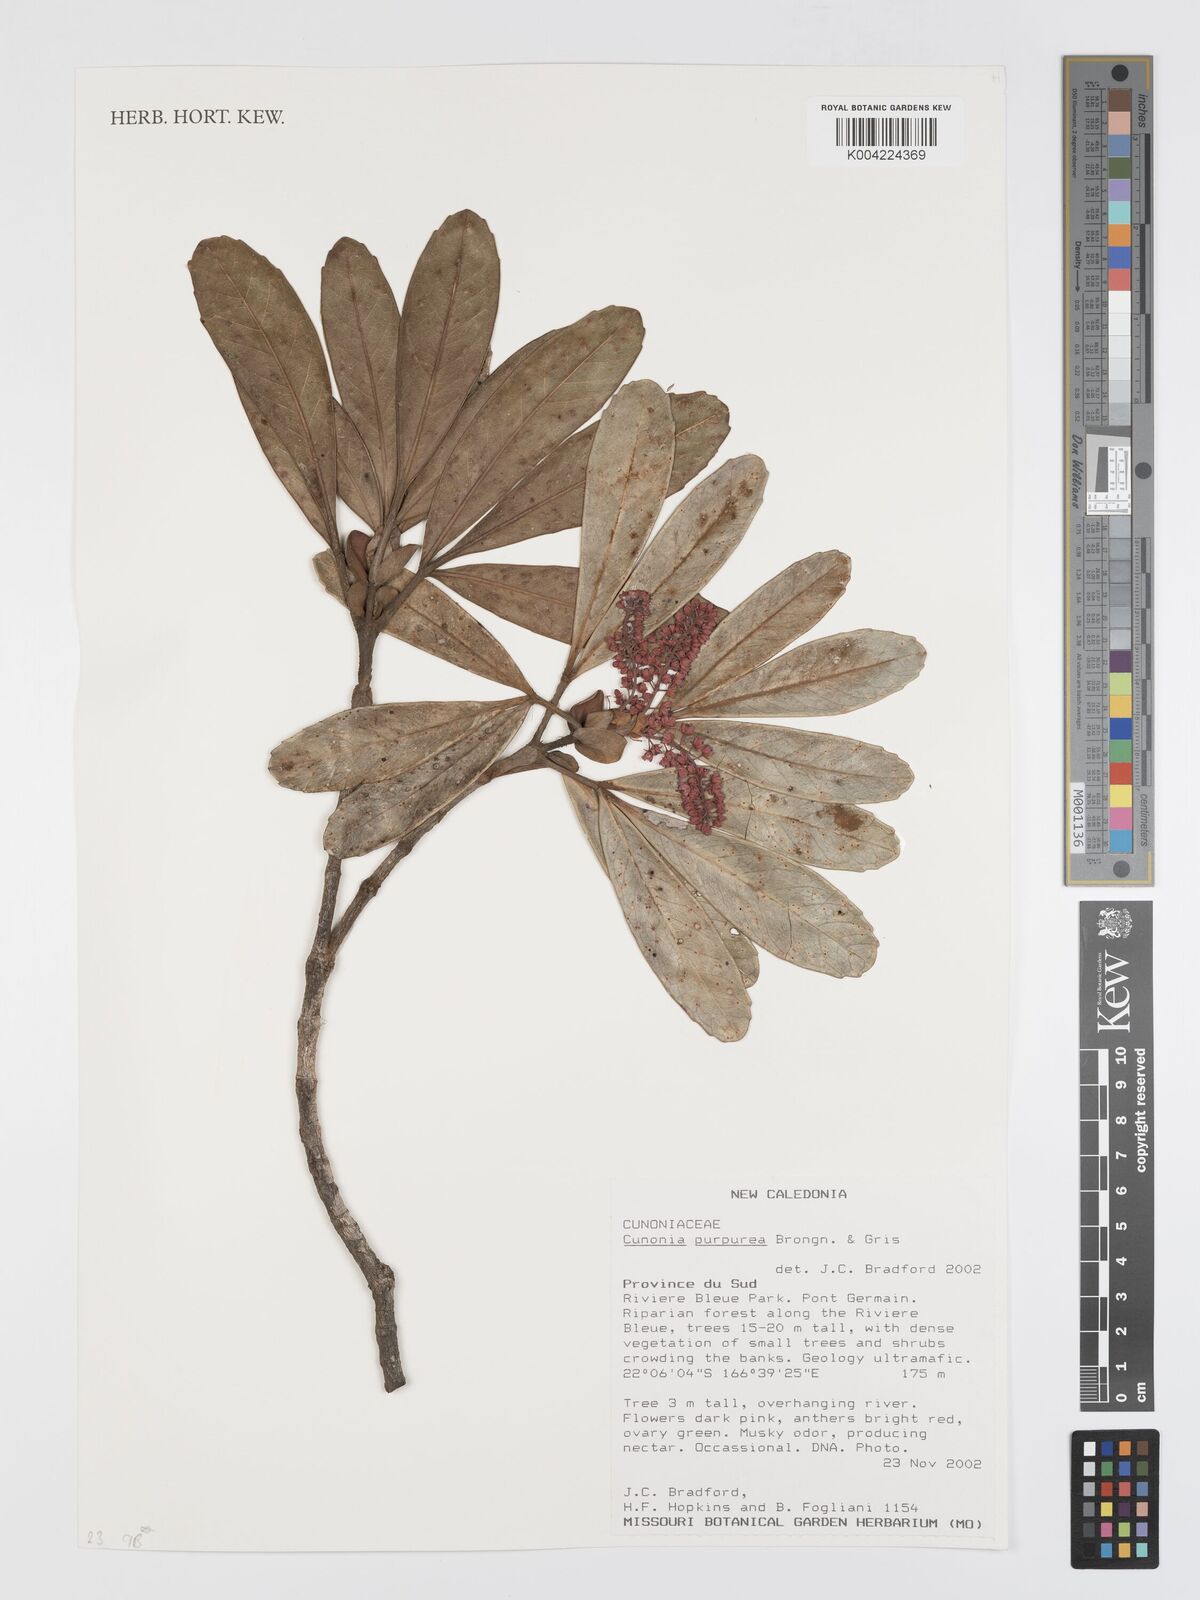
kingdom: Plantae
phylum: Tracheophyta
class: Magnoliopsida
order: Oxalidales
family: Cunoniaceae
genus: Cunonia
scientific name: Cunonia purpurea
